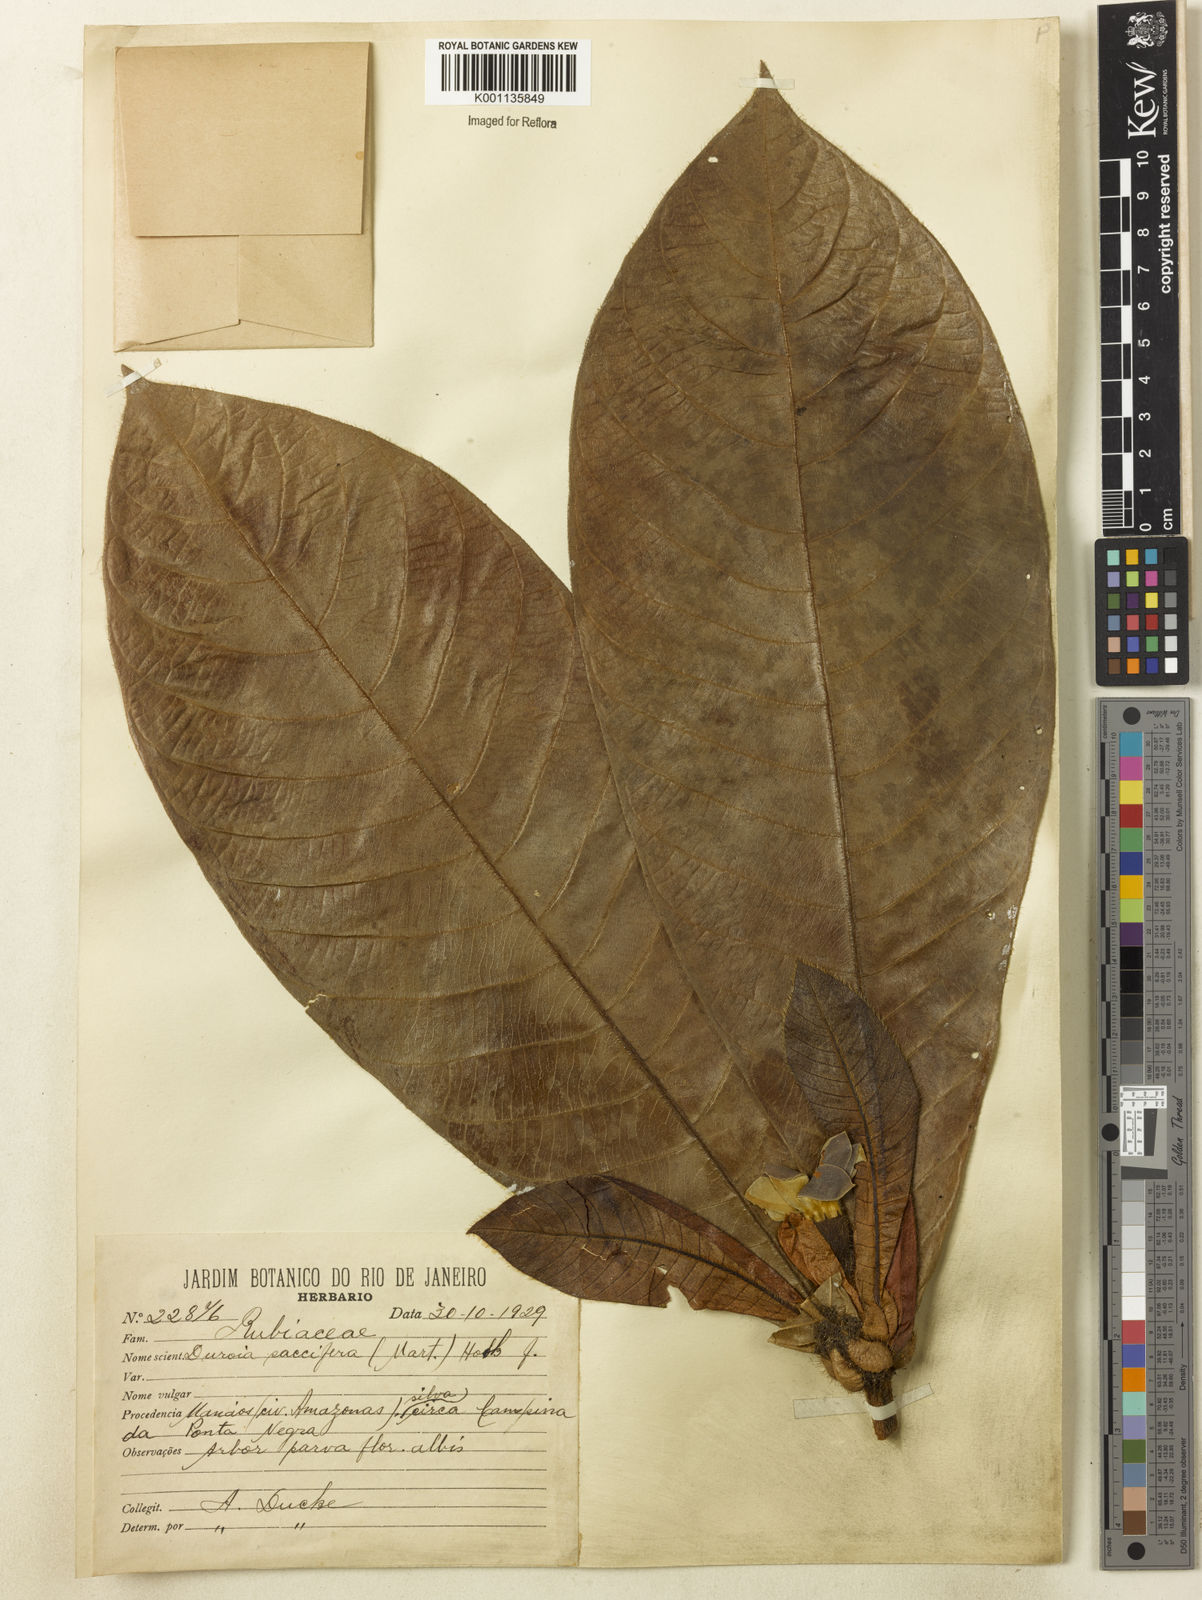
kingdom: Plantae
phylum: Tracheophyta
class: Magnoliopsida
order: Gentianales
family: Rubiaceae
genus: Duroia
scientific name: Duroia saccifera
